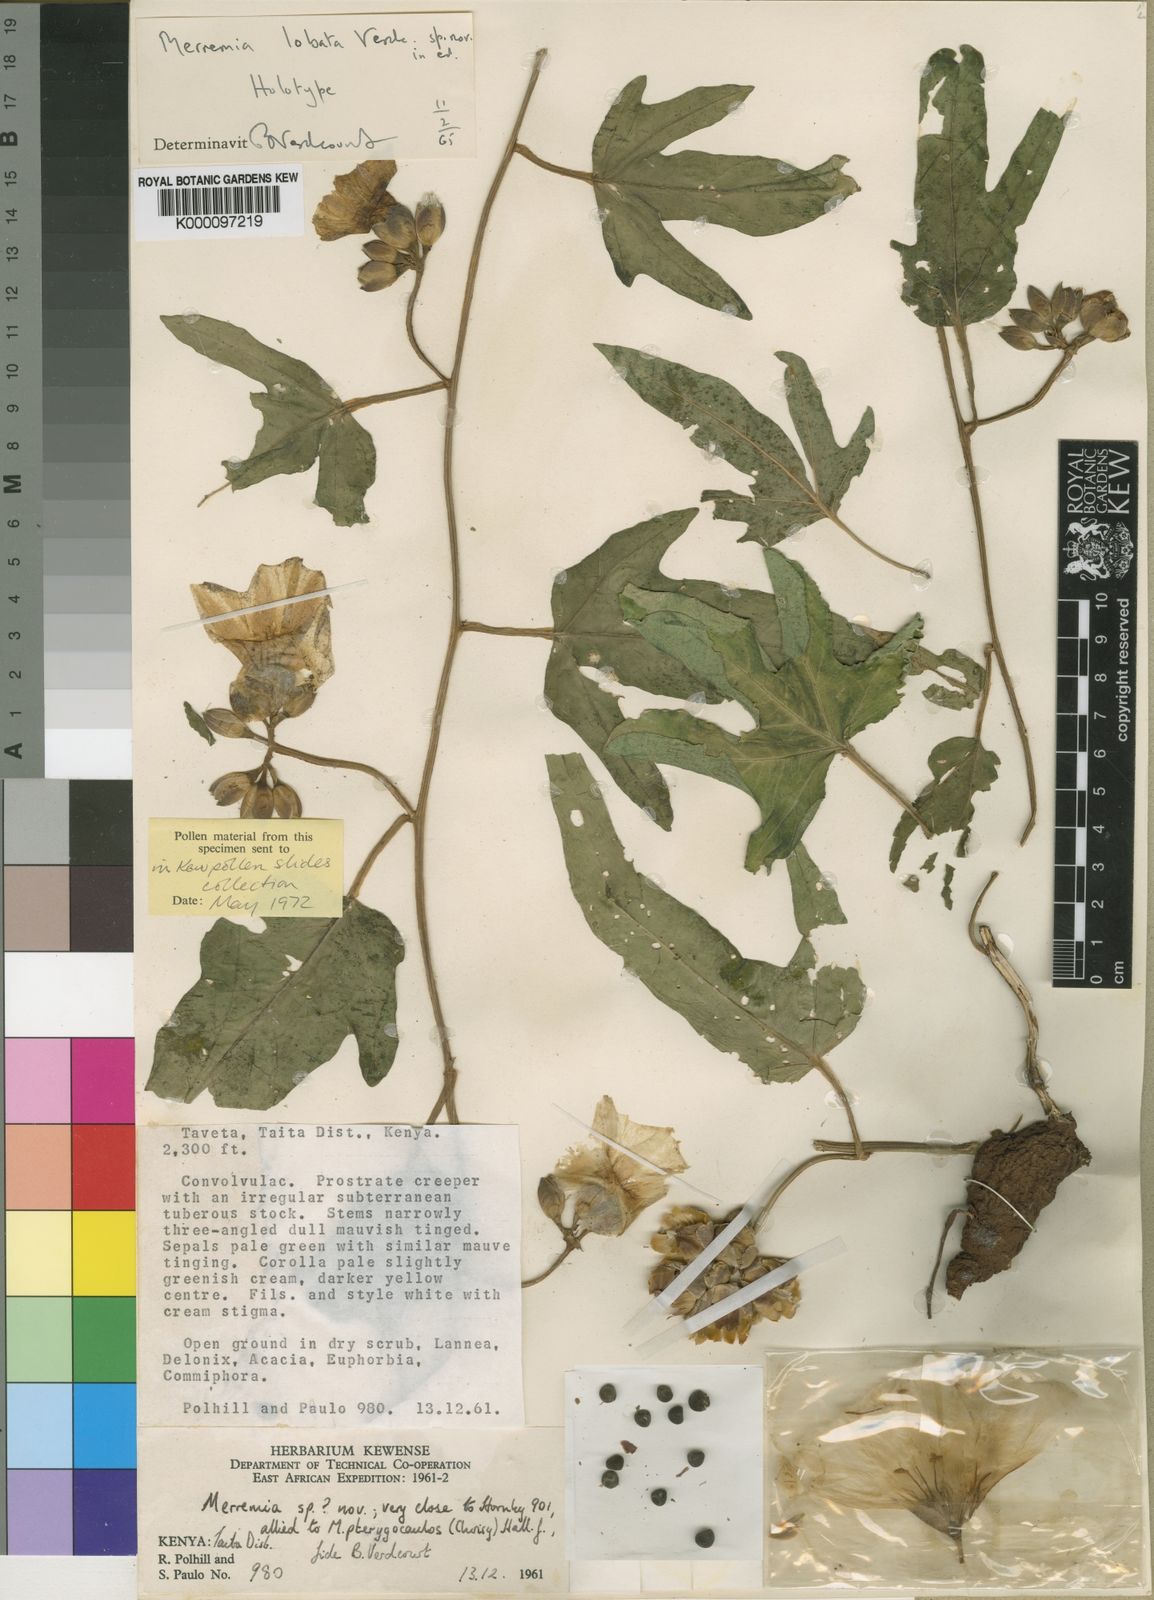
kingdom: Plantae
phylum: Tracheophyta
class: Magnoliopsida
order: Solanales
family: Convolvulaceae
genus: Merremia
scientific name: Merremia ellenbeckii
